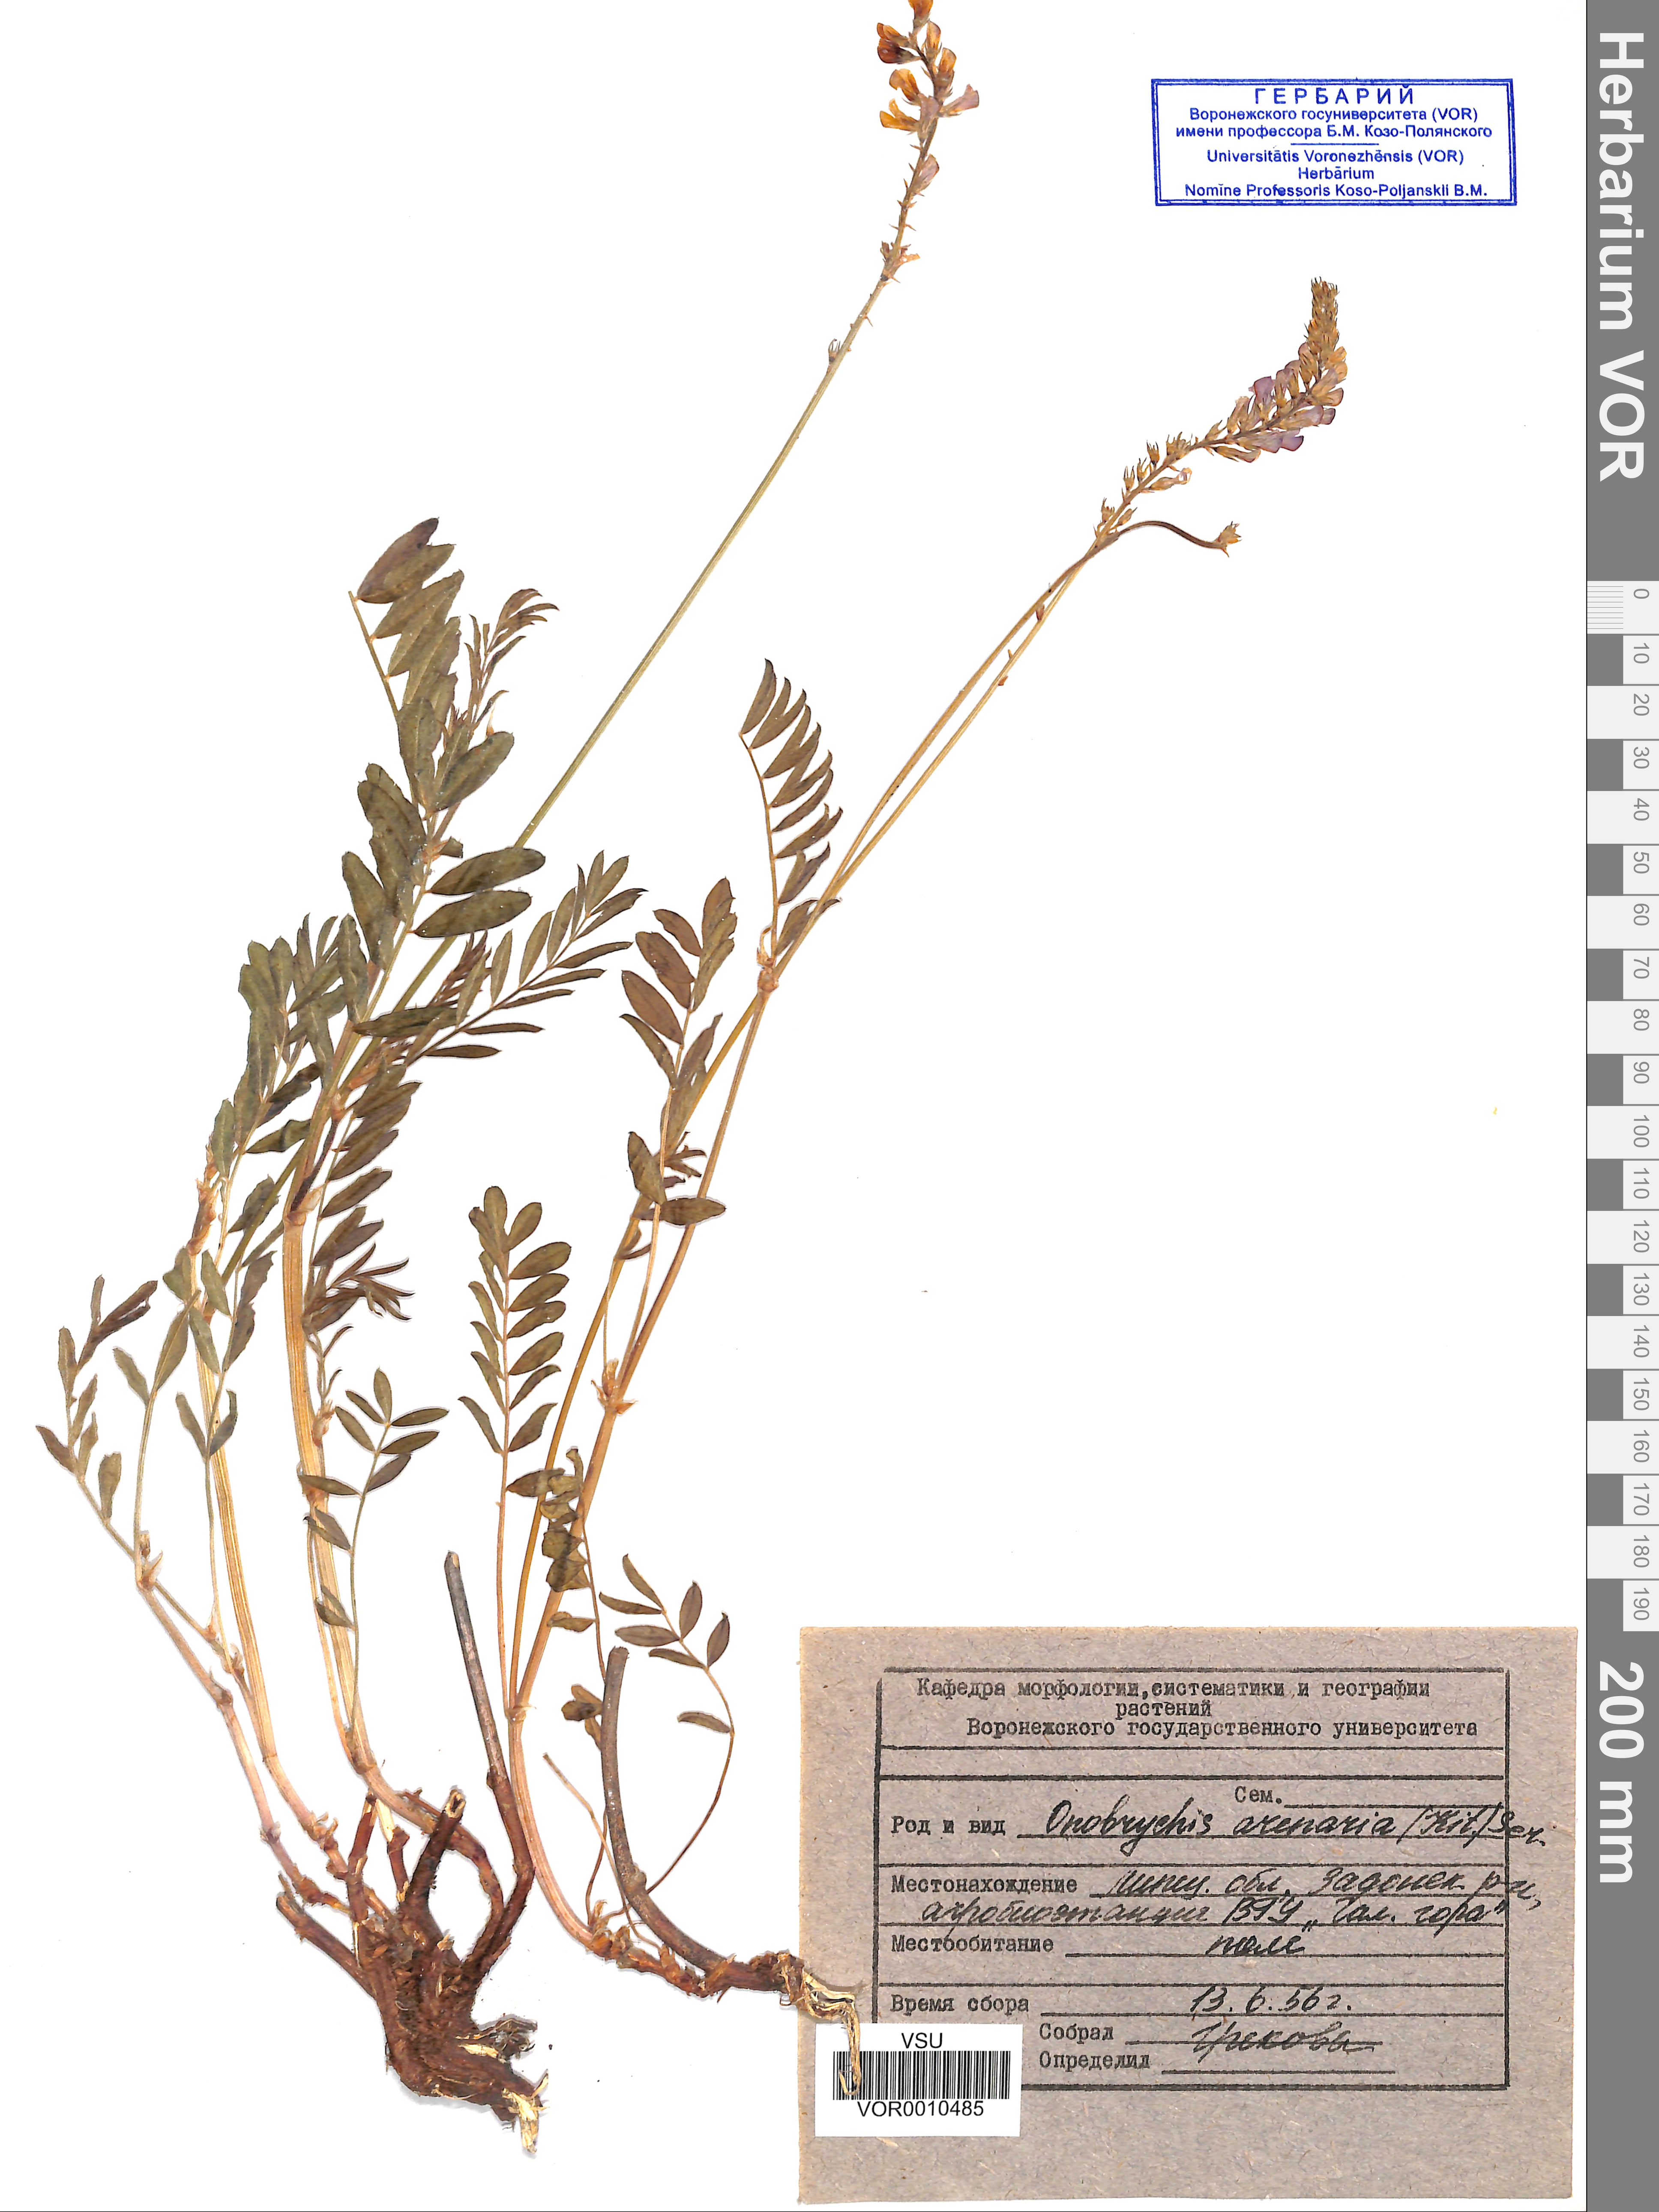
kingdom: Plantae
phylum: Tracheophyta
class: Magnoliopsida
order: Fabales
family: Fabaceae
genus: Onobrychis
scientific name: Onobrychis arenaria
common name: Sand esparcet
